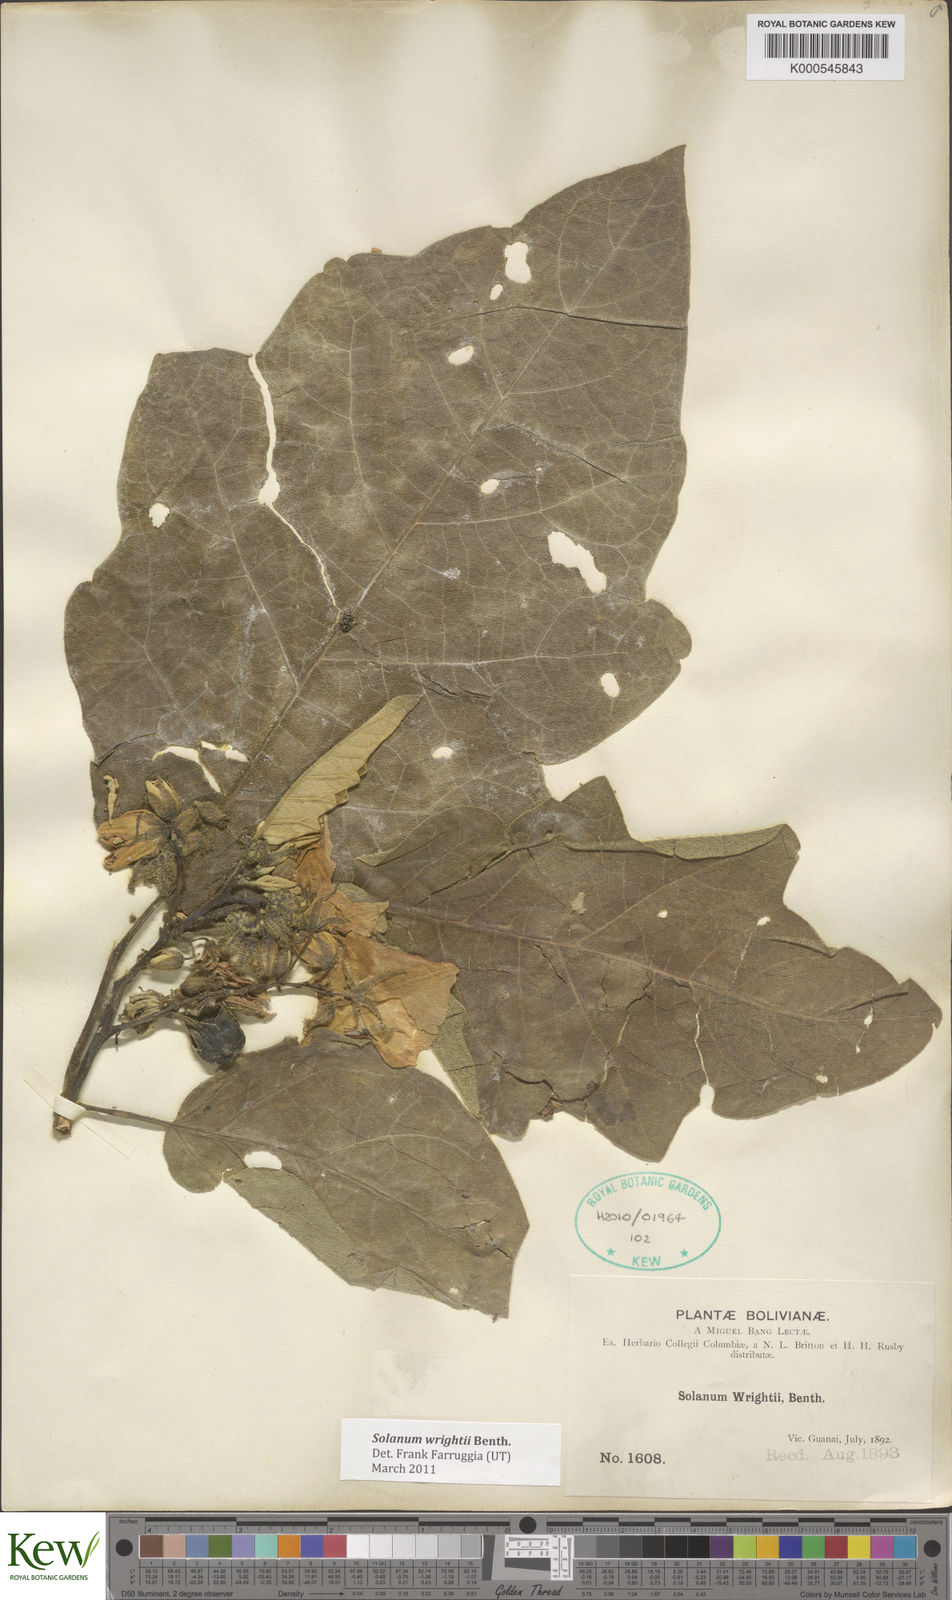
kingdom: Plantae
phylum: Tracheophyta
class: Magnoliopsida
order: Solanales
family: Solanaceae
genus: Solanum
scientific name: Solanum wrightii
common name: Brazilian potato-tree
